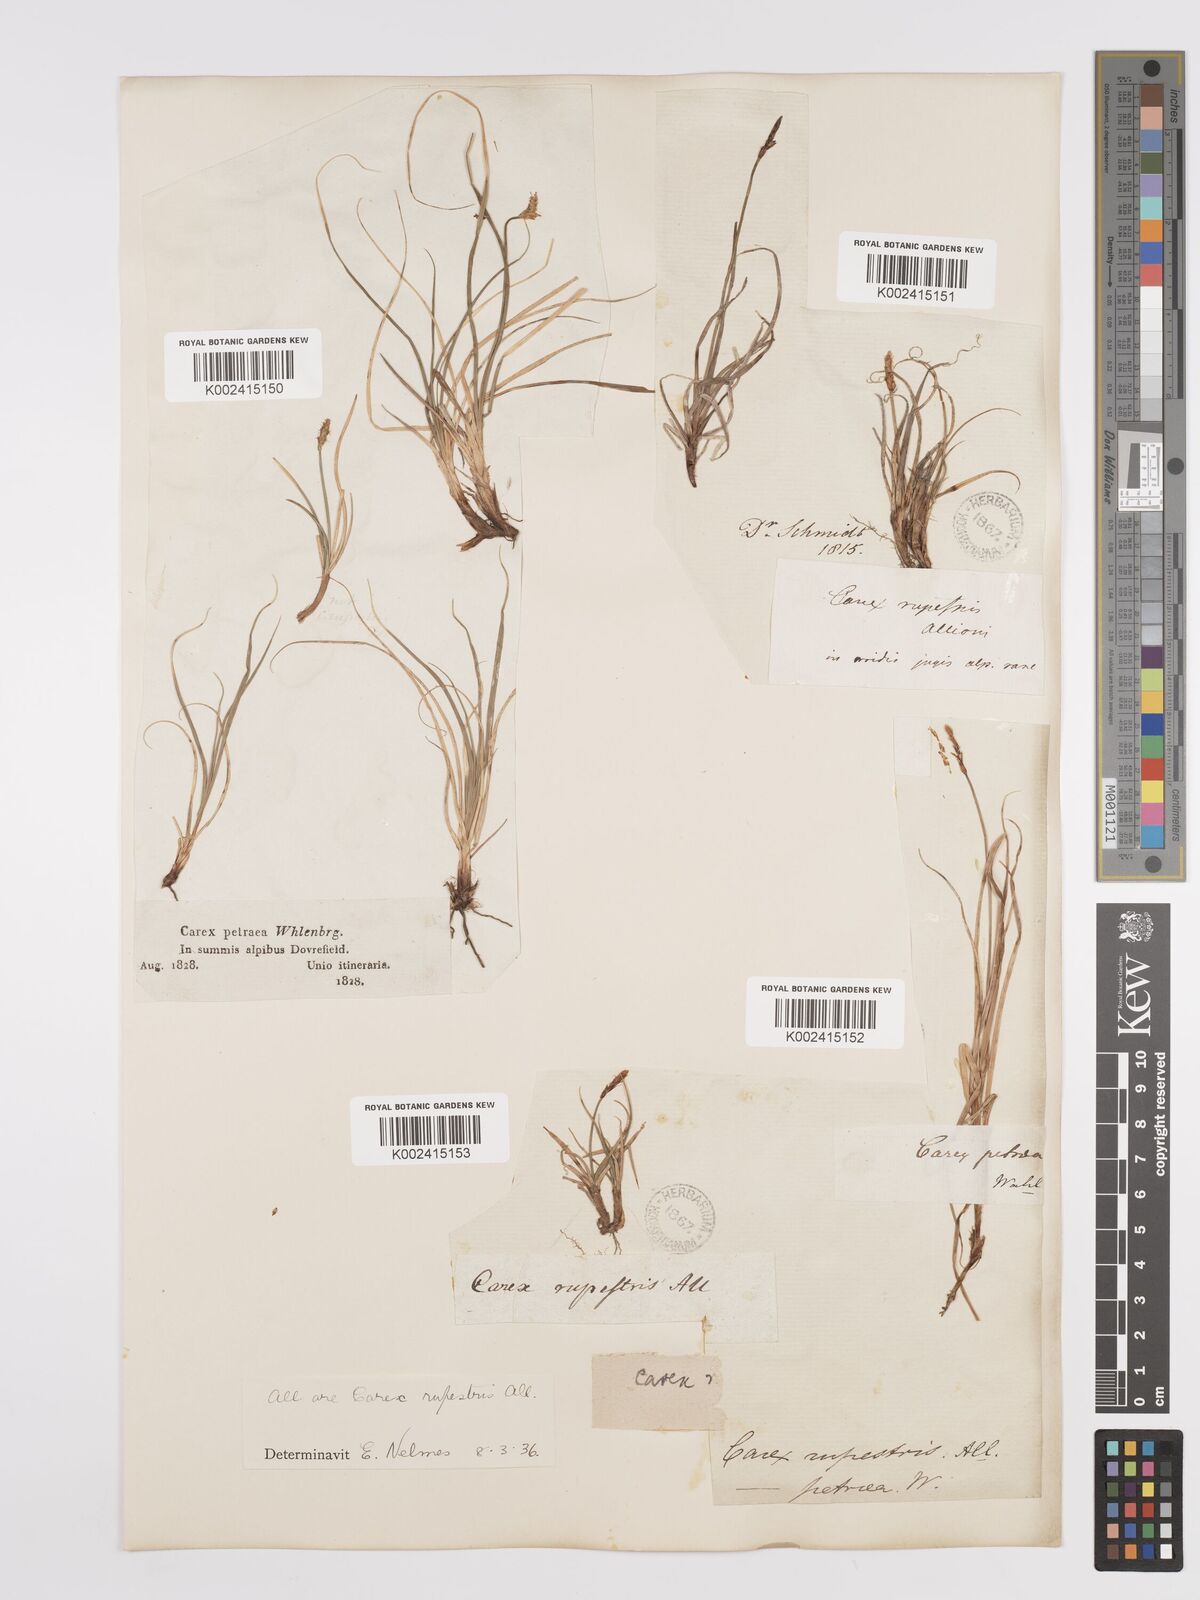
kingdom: Plantae
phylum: Tracheophyta
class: Liliopsida
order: Poales
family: Cyperaceae
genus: Carex
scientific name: Carex rupestris
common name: Rock sedge
